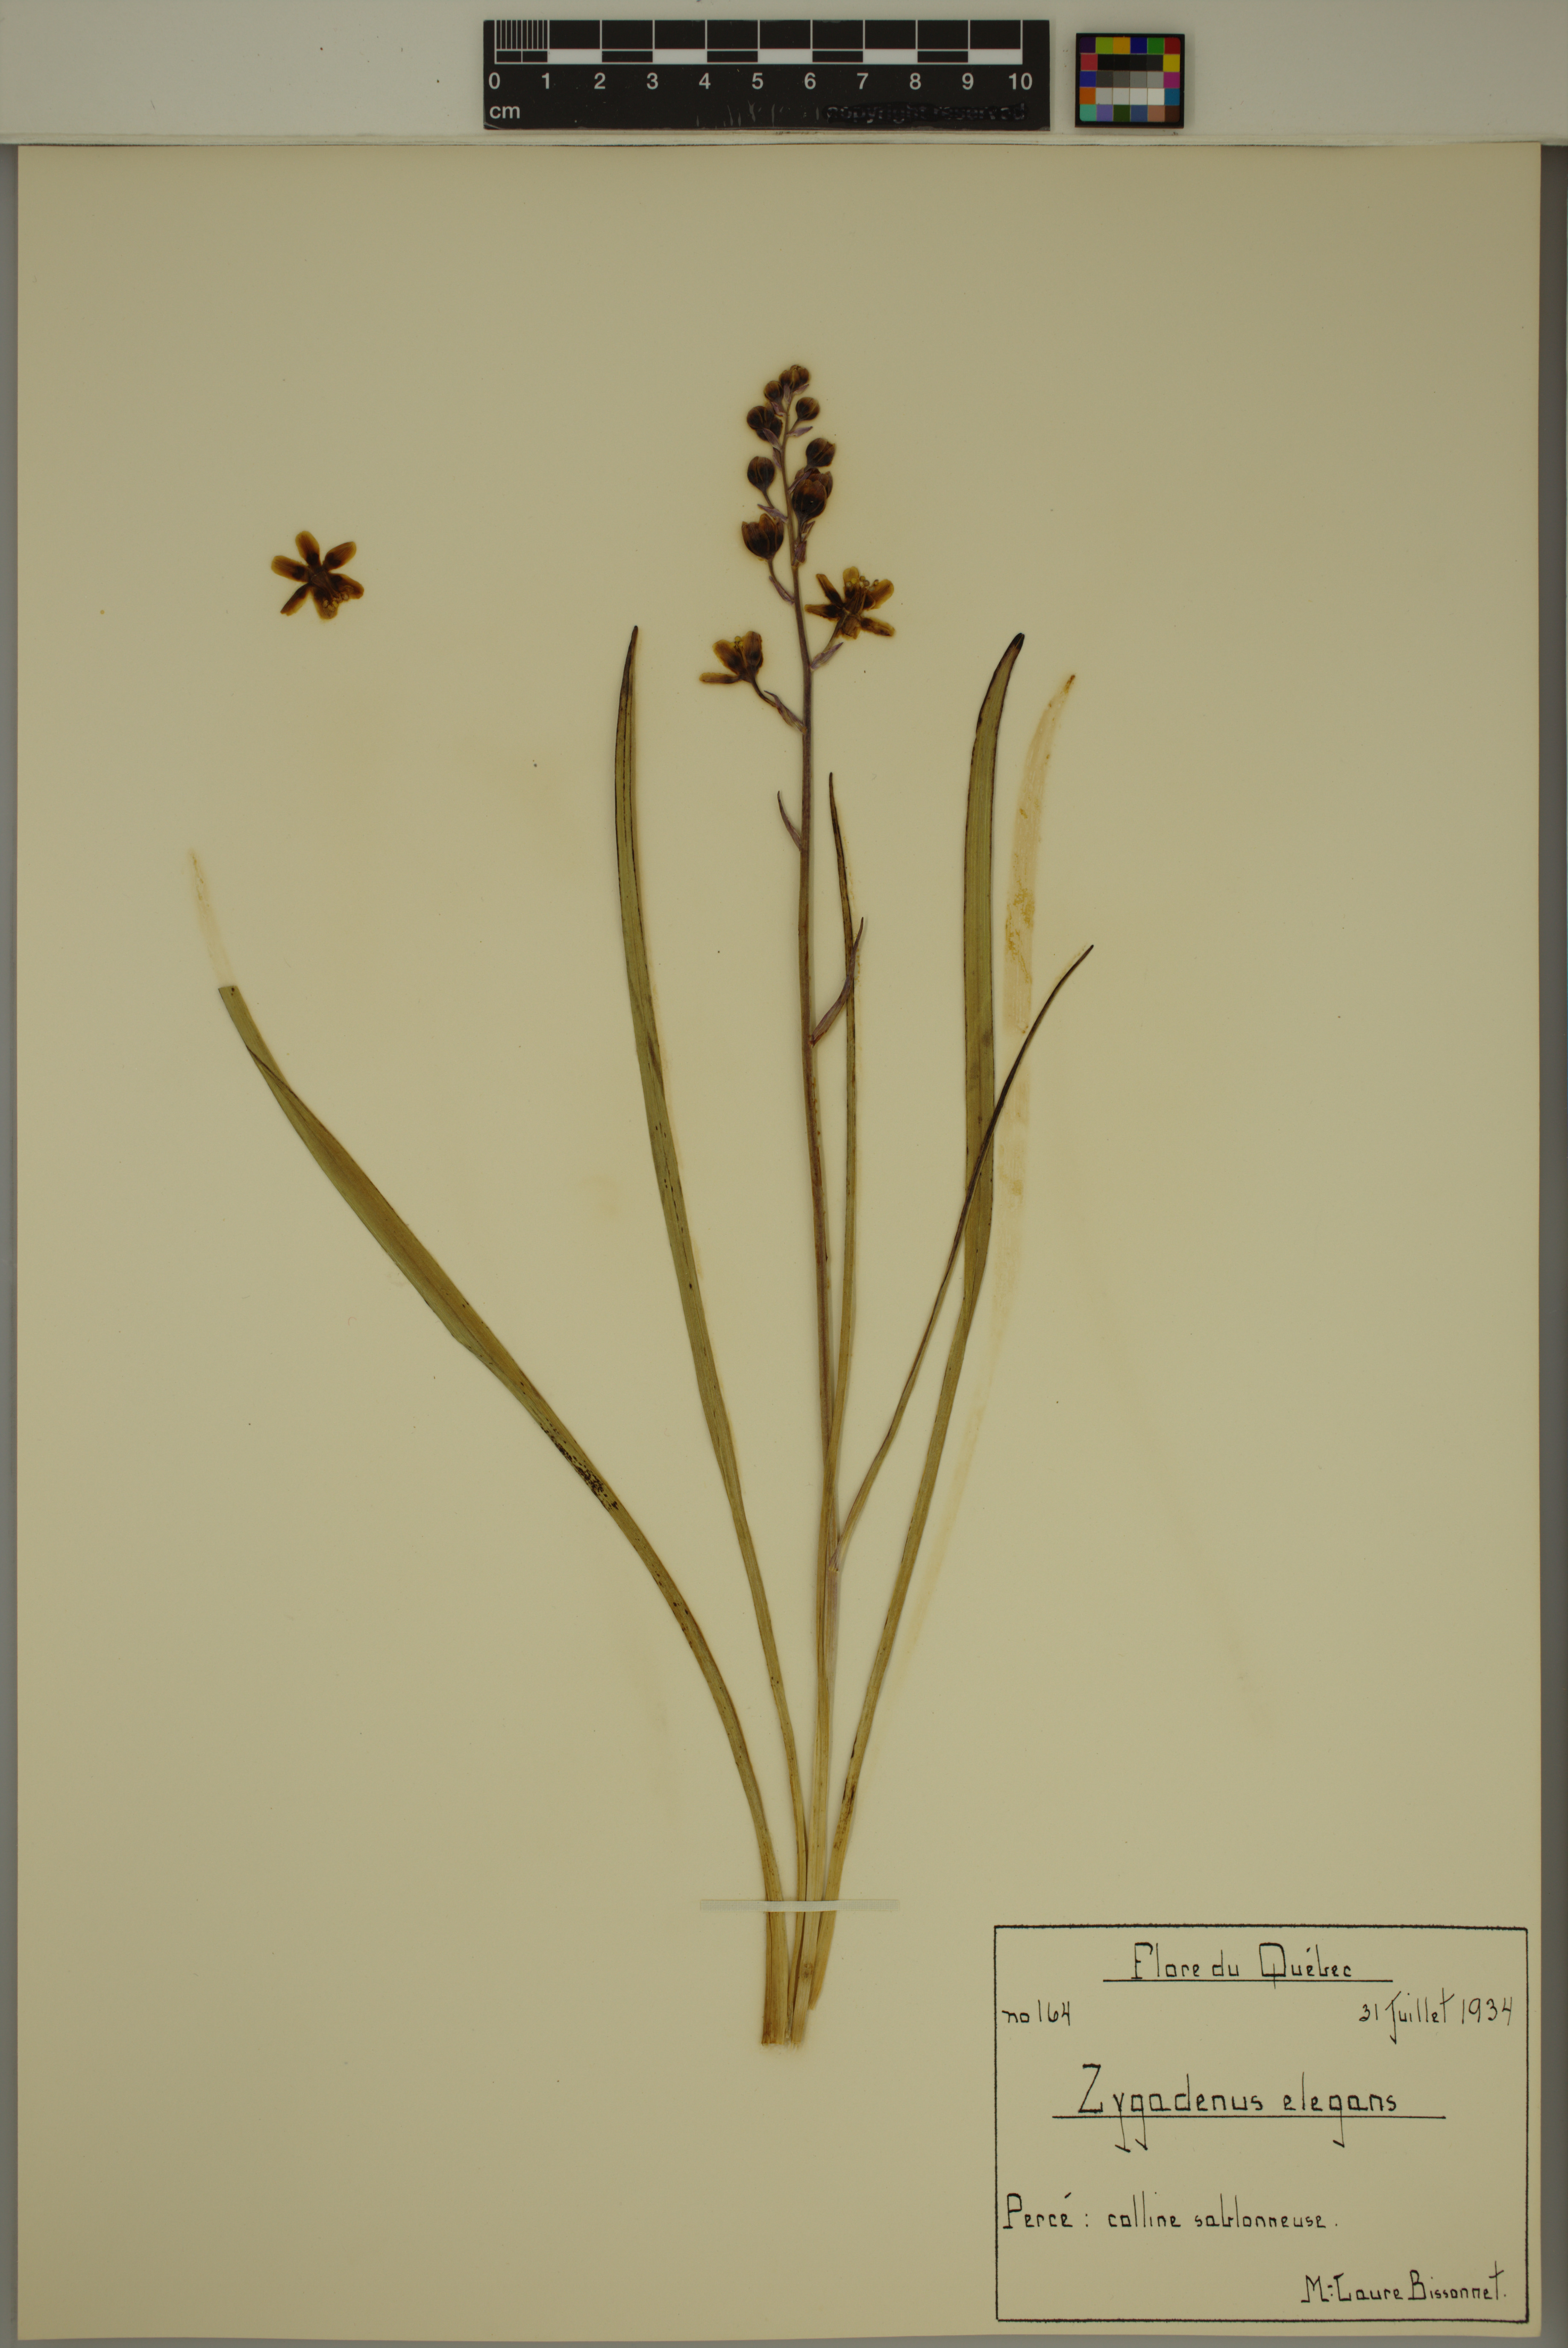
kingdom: Plantae
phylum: Tracheophyta
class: Liliopsida
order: Liliales
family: Melanthiaceae
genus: Anticlea
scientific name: Anticlea elegans
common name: Mountain death camas
